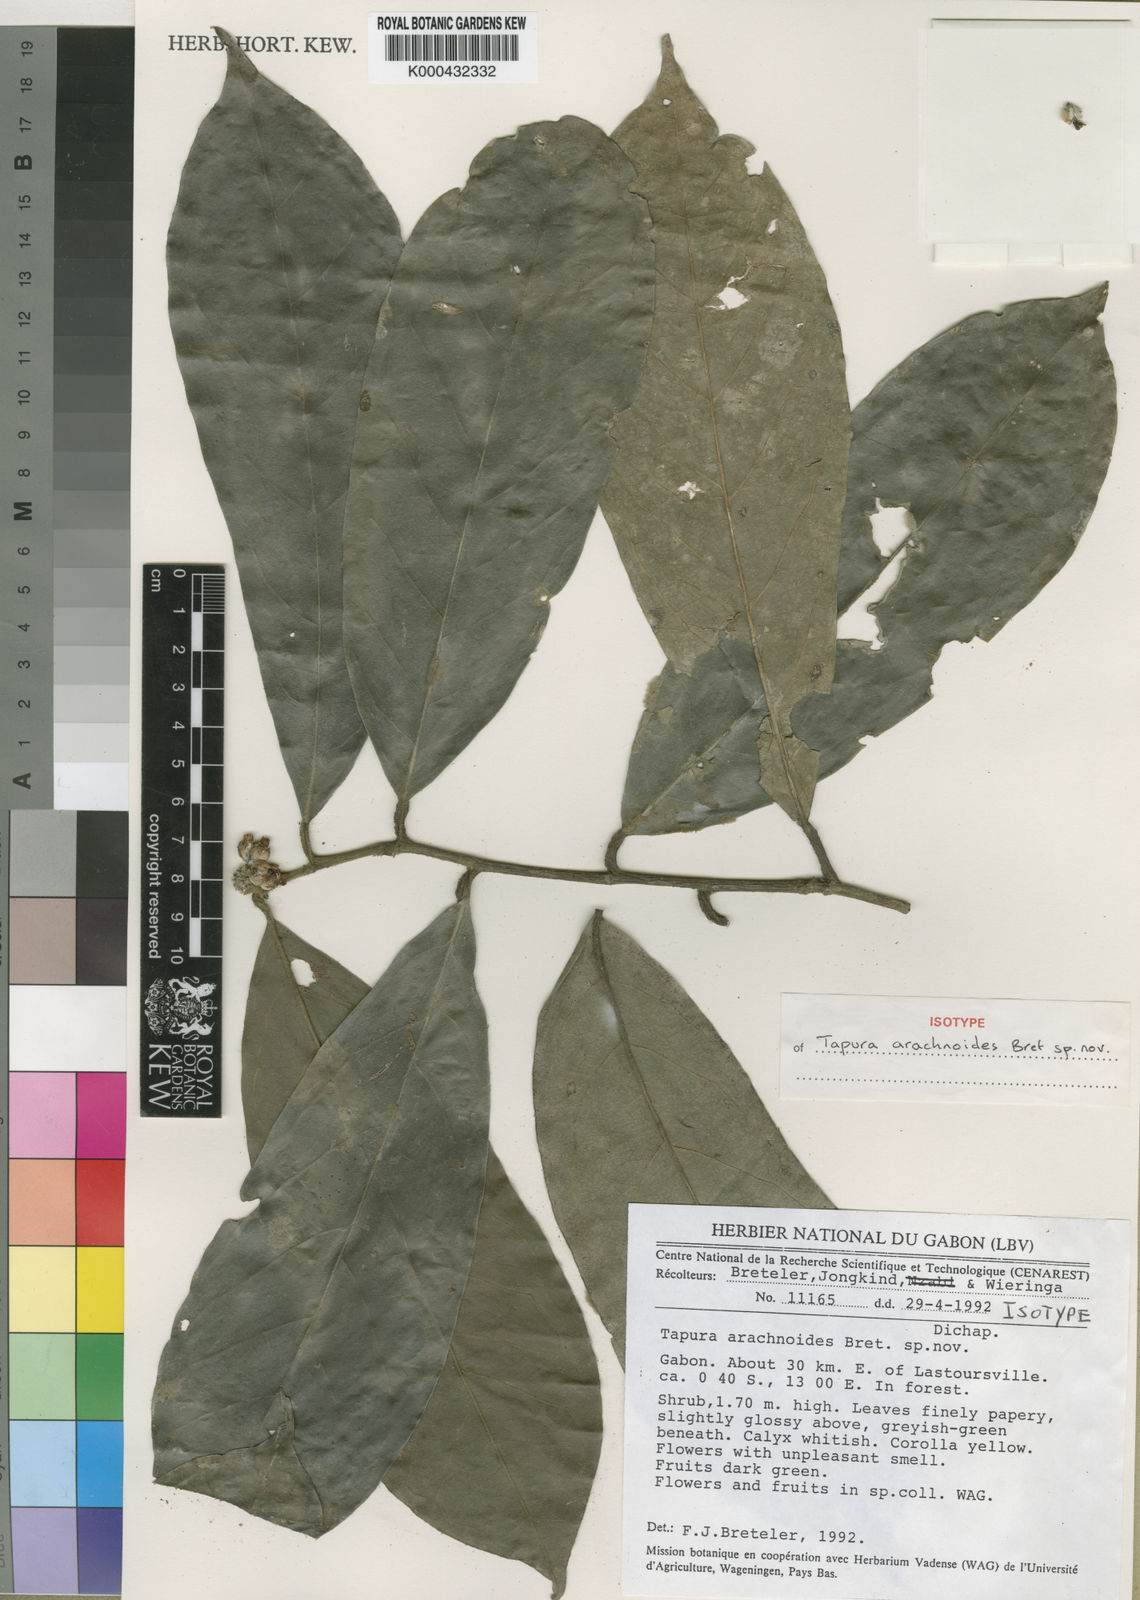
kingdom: Plantae
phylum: Tracheophyta
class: Magnoliopsida
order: Malpighiales
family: Dichapetalaceae
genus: Tapura
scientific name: Tapura arachnoidea
